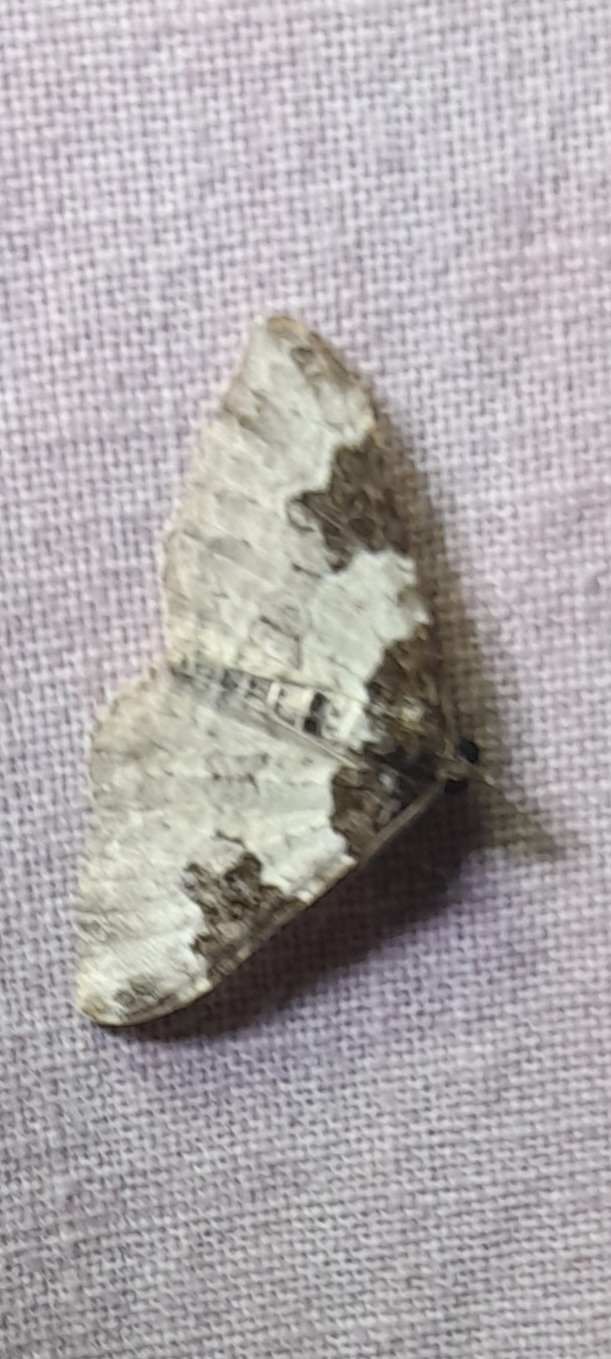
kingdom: Animalia
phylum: Arthropoda
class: Insecta
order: Lepidoptera
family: Geometridae
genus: Xanthorhoe
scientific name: Xanthorhoe fluctuata
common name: Sortbæltet bladmåler
